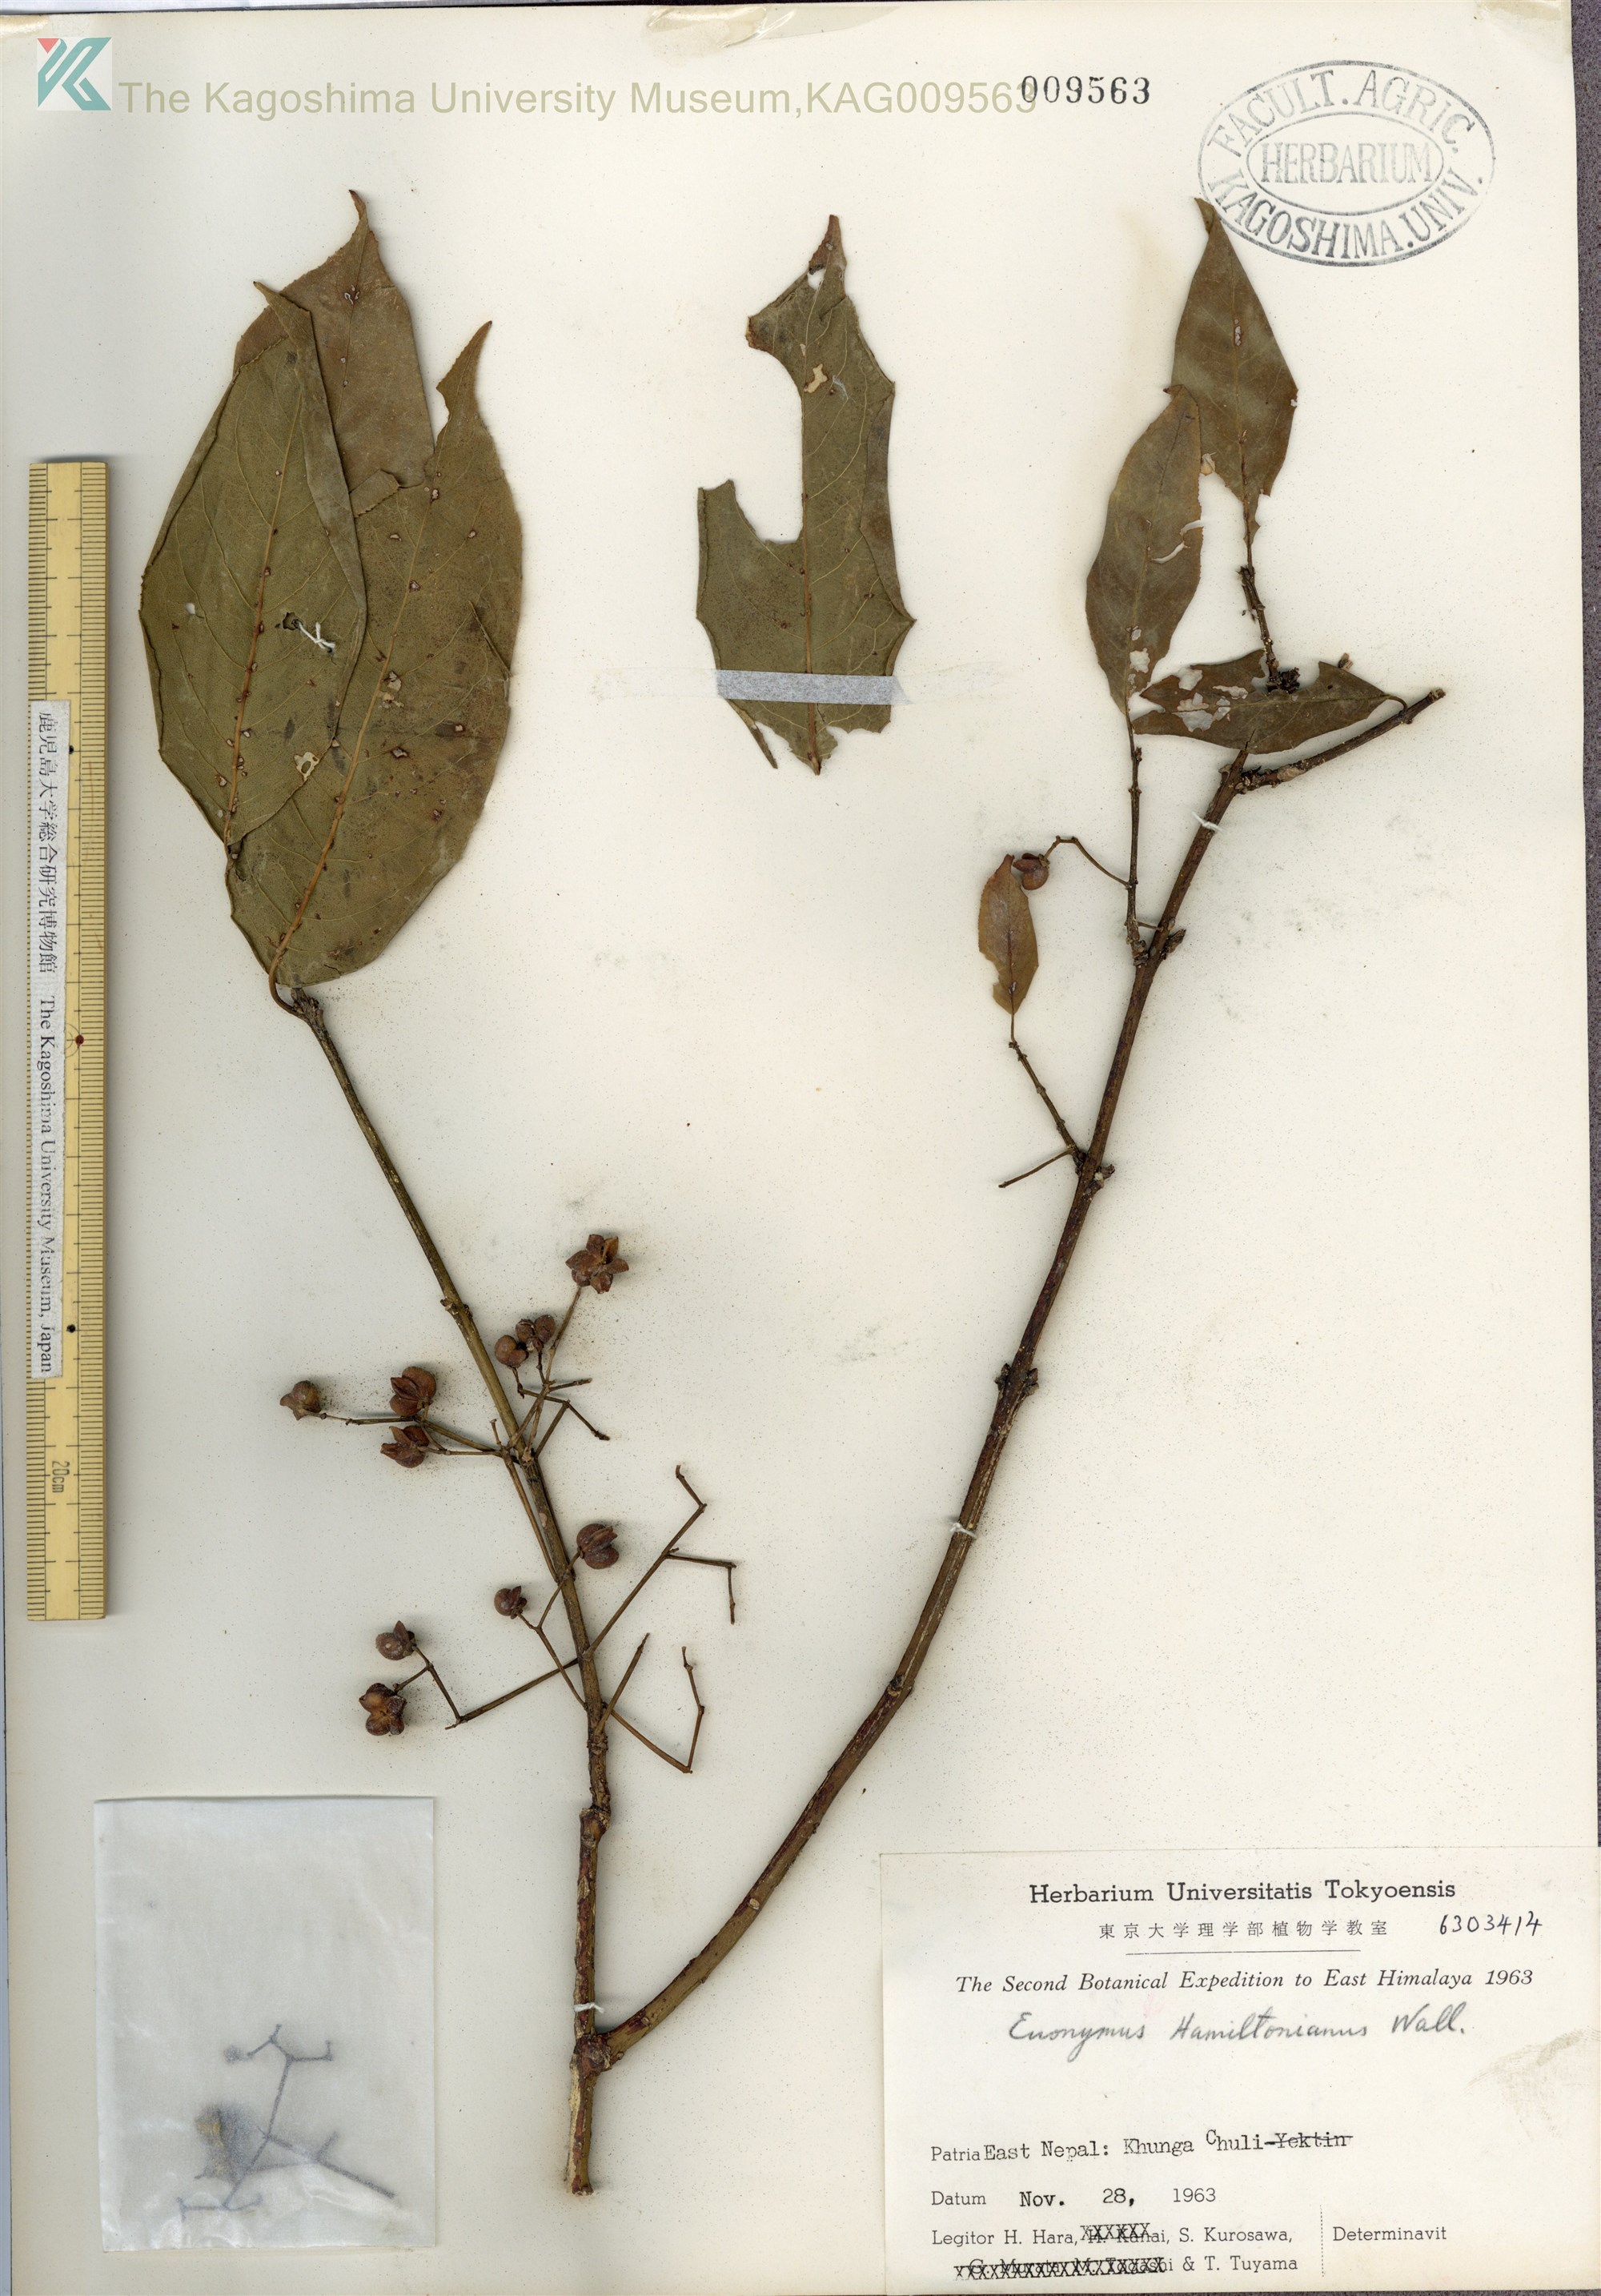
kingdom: Plantae
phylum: Tracheophyta
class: Magnoliopsida
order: Celastrales
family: Celastraceae
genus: Euonymus
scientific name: Euonymus hamiltonianus
